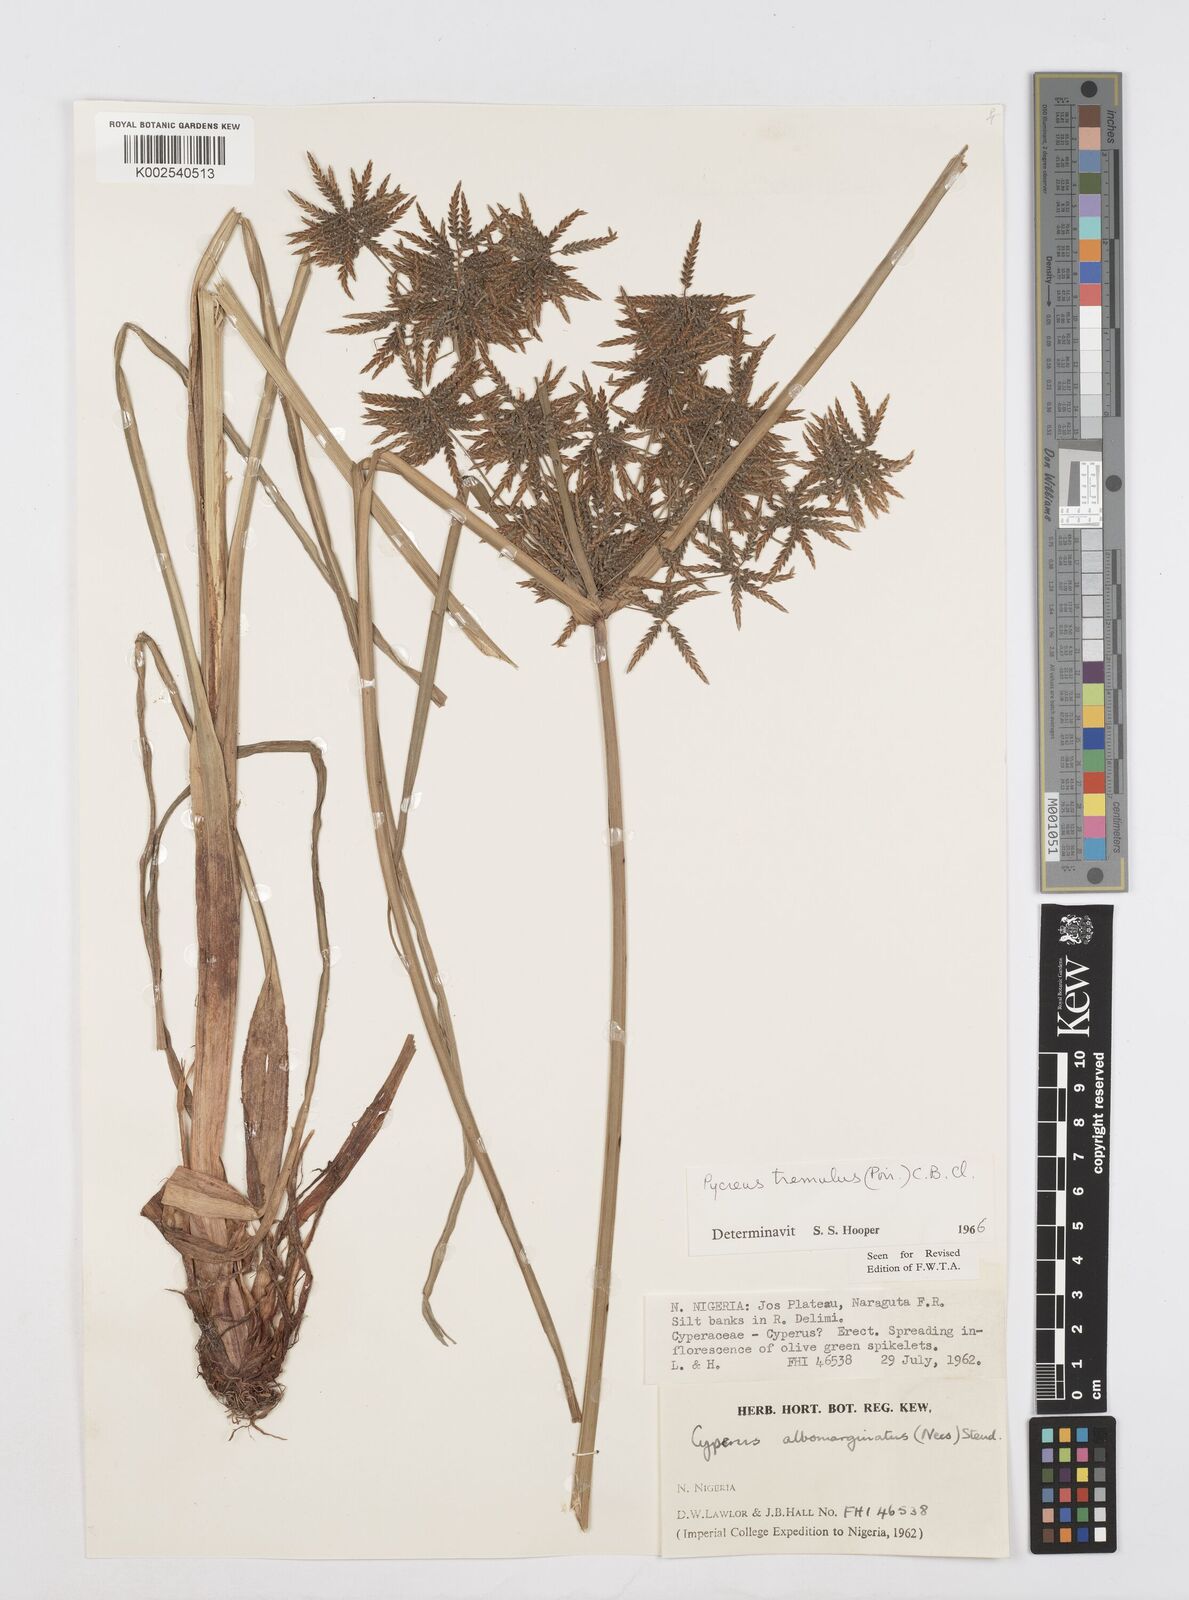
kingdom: Plantae
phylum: Tracheophyta
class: Liliopsida
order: Poales
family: Cyperaceae
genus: Cyperus
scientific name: Cyperus macrostachyos
